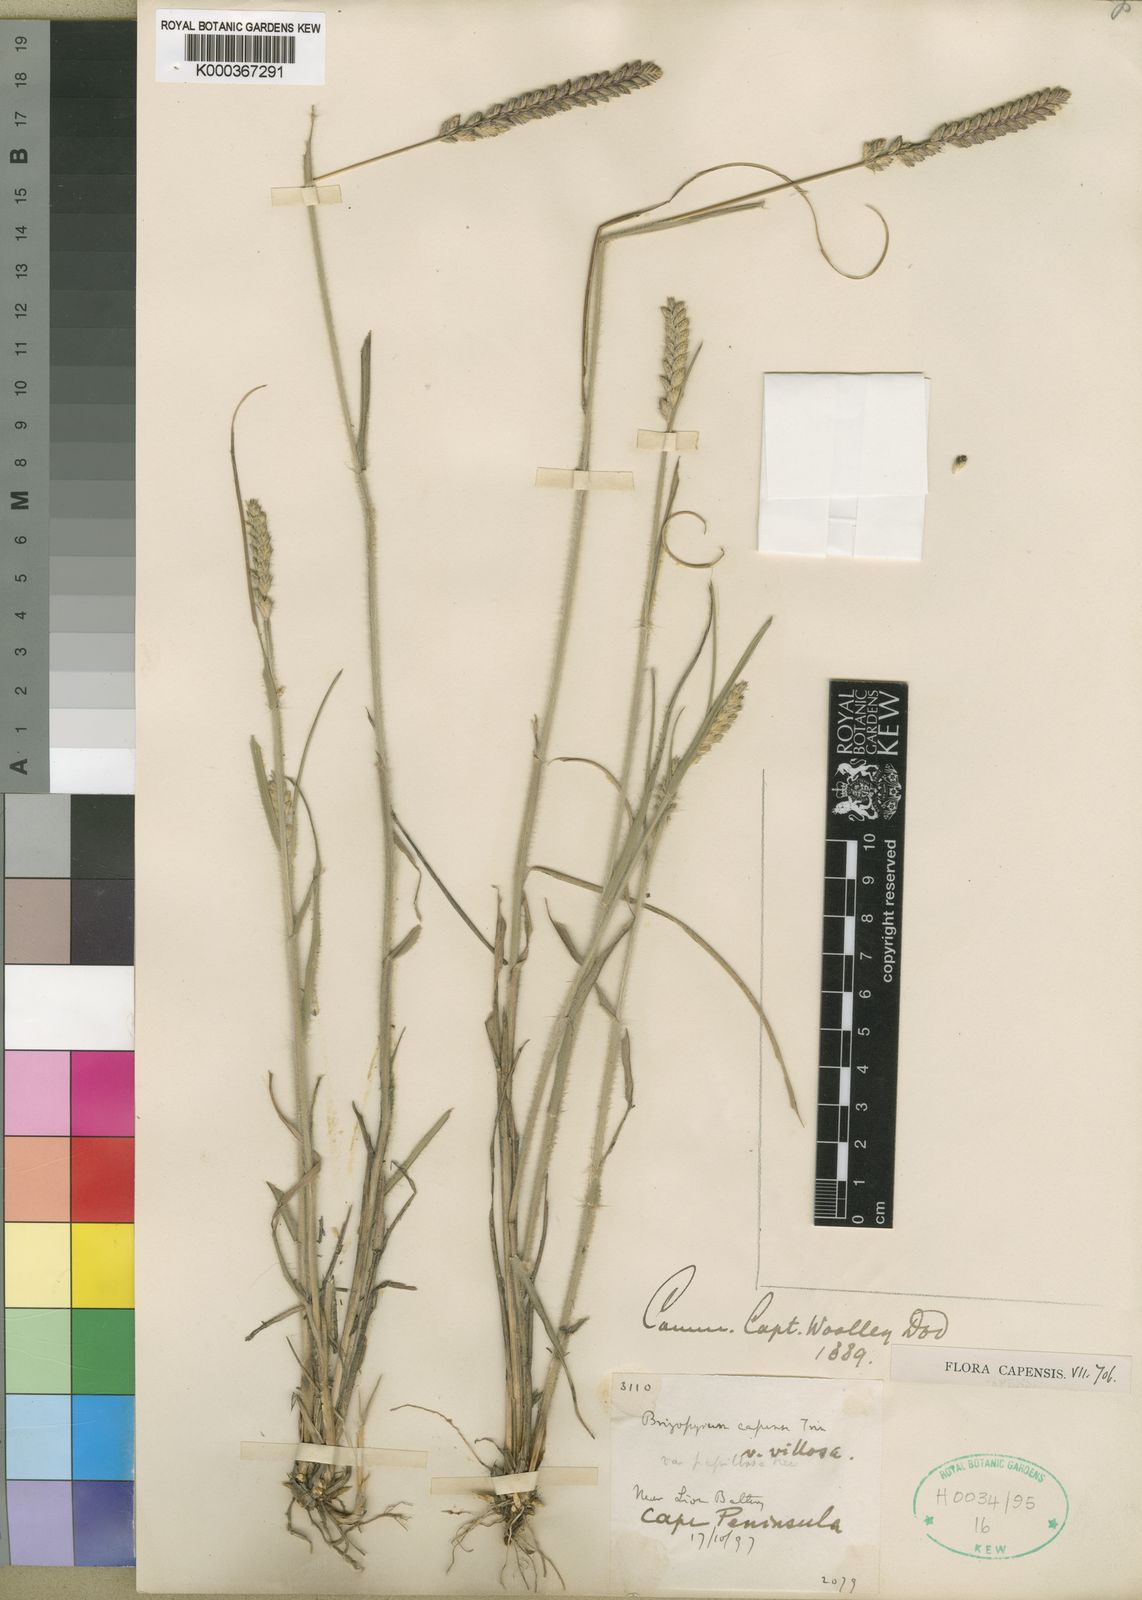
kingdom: Plantae
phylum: Tracheophyta
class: Liliopsida
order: Poales
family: Poaceae
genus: Tribolium
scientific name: Tribolium uniolae
